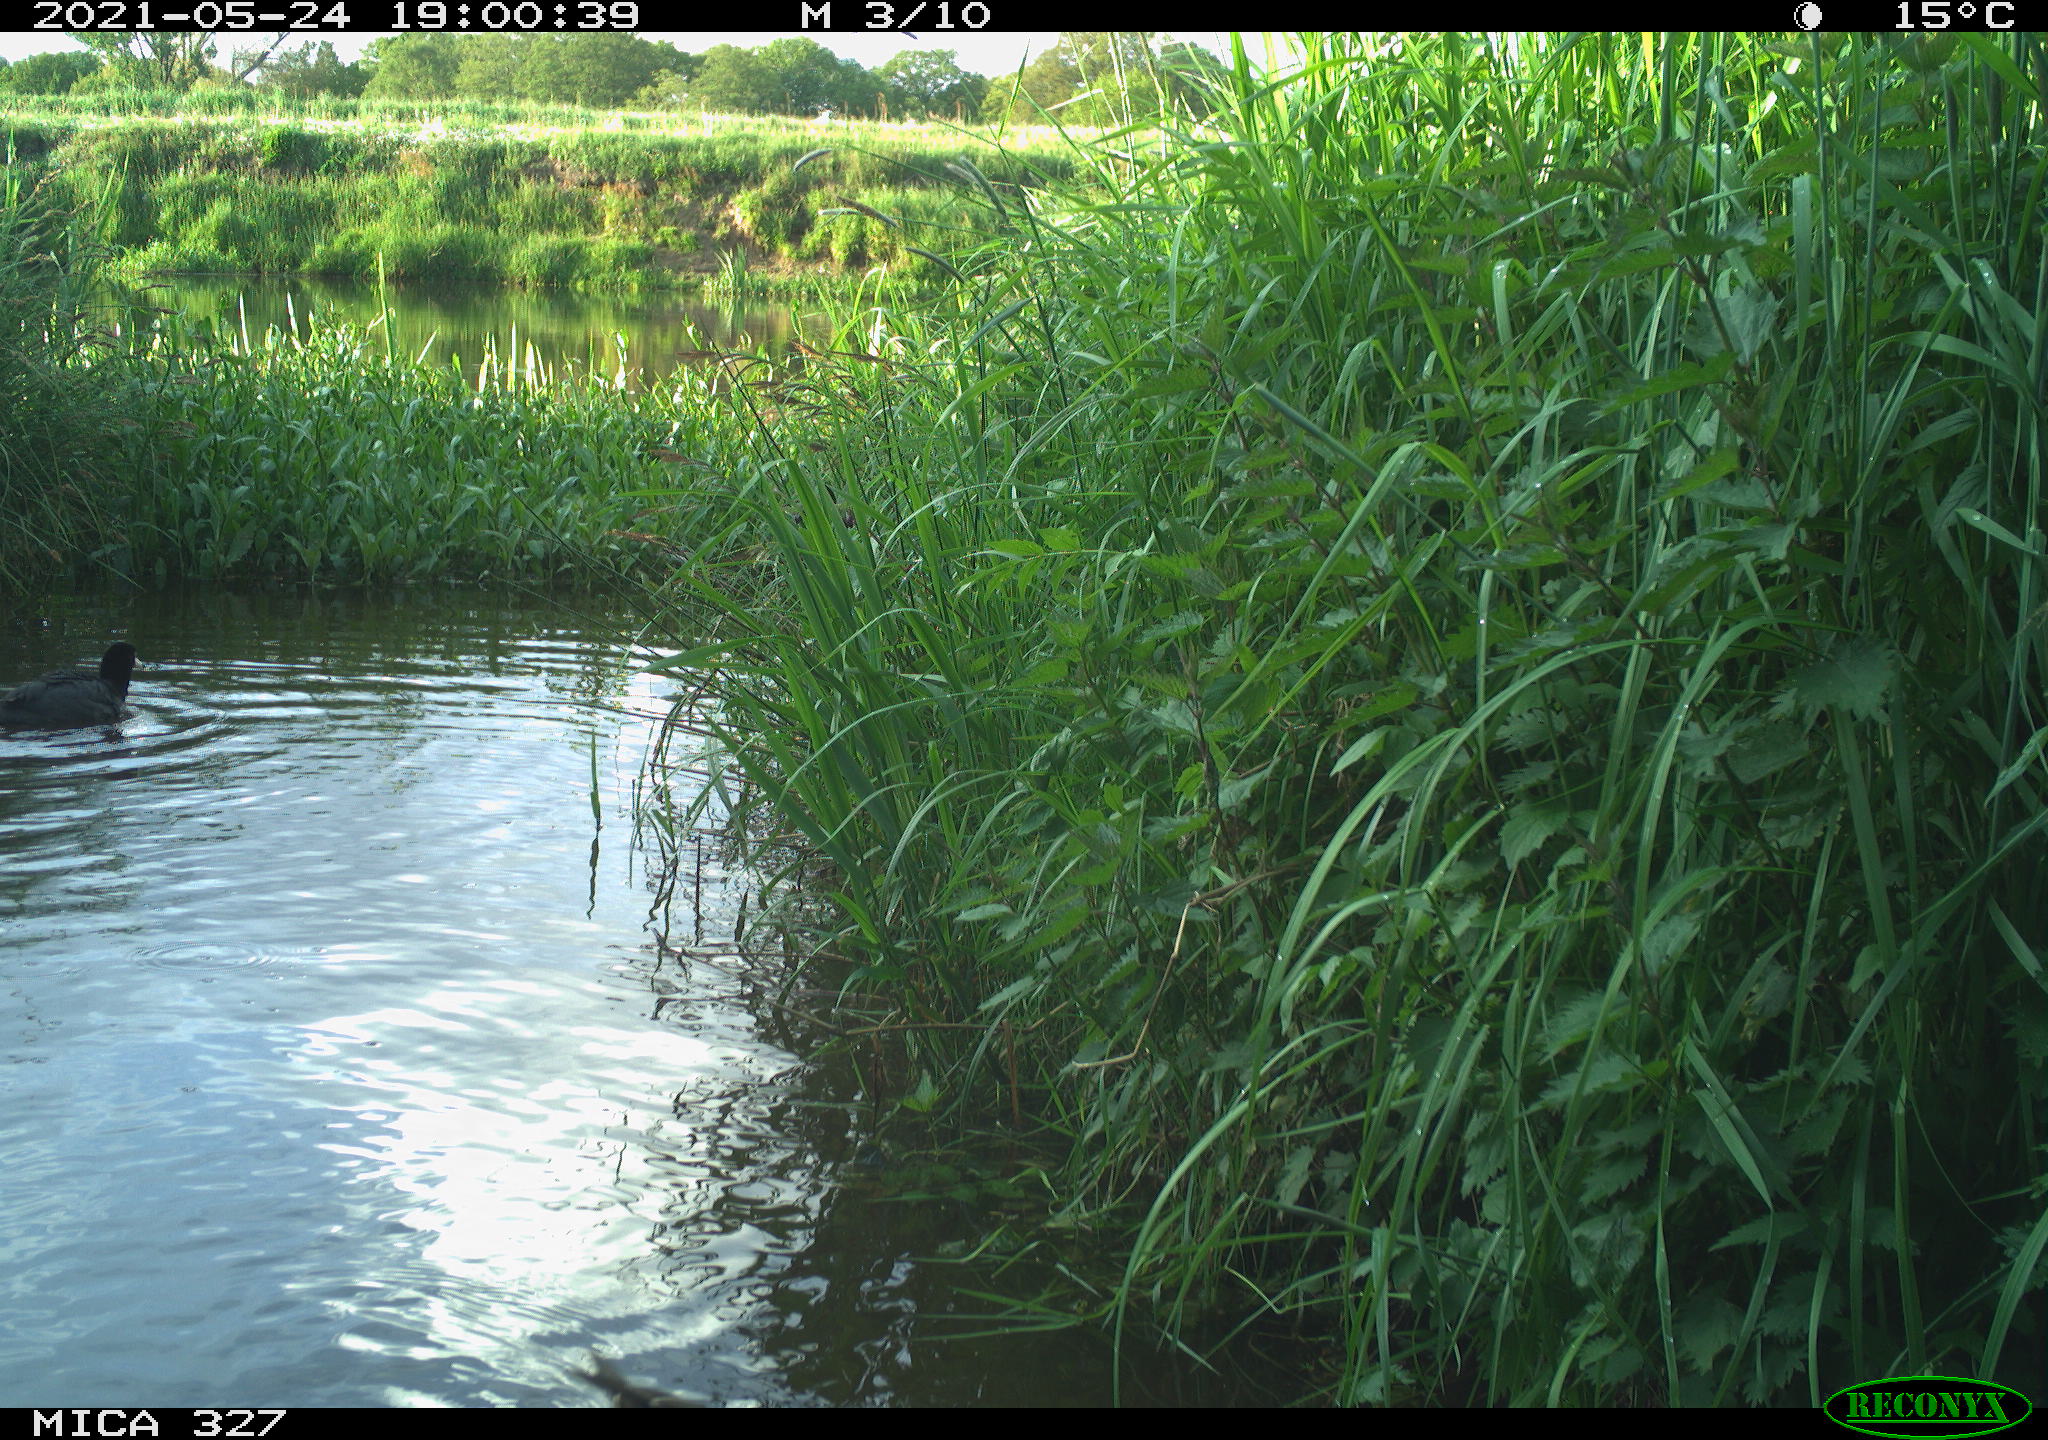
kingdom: Animalia
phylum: Chordata
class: Aves
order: Anseriformes
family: Anatidae
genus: Anas
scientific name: Anas platyrhynchos
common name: Mallard
